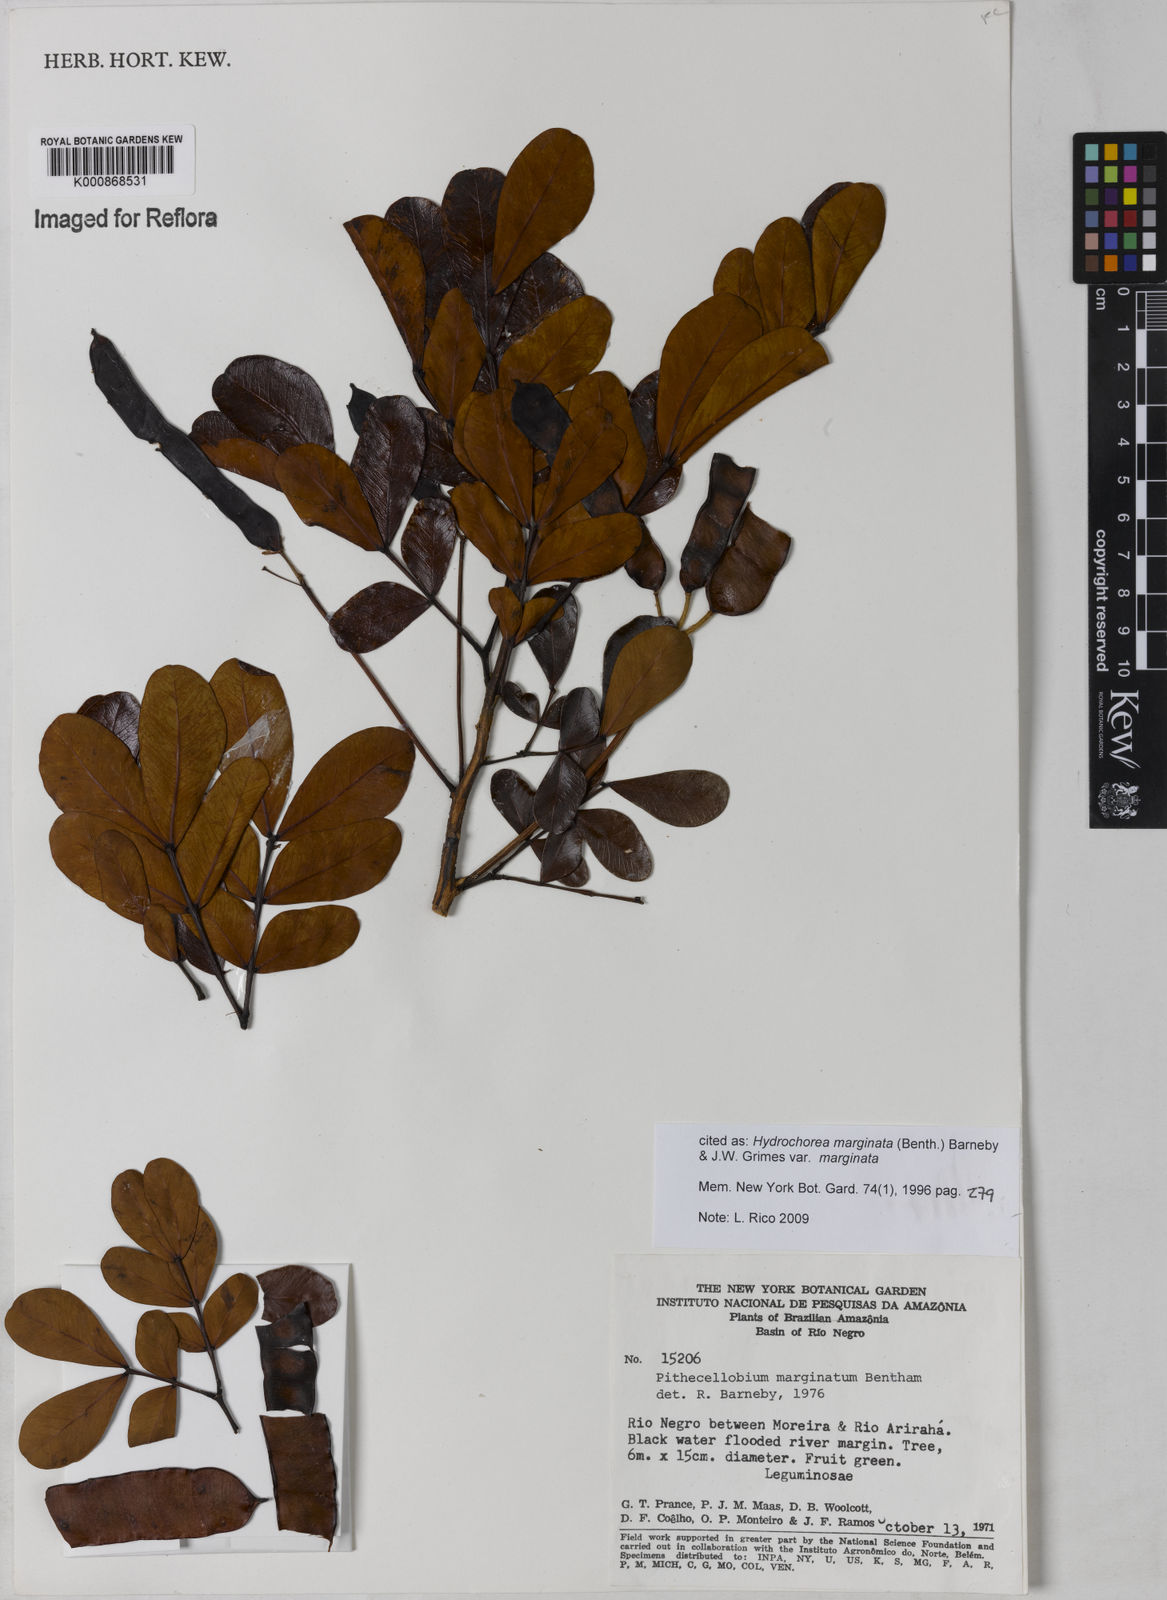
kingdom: Plantae
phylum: Tracheophyta
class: Magnoliopsida
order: Fabales
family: Fabaceae
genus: Hydrochorea
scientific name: Hydrochorea marginata
